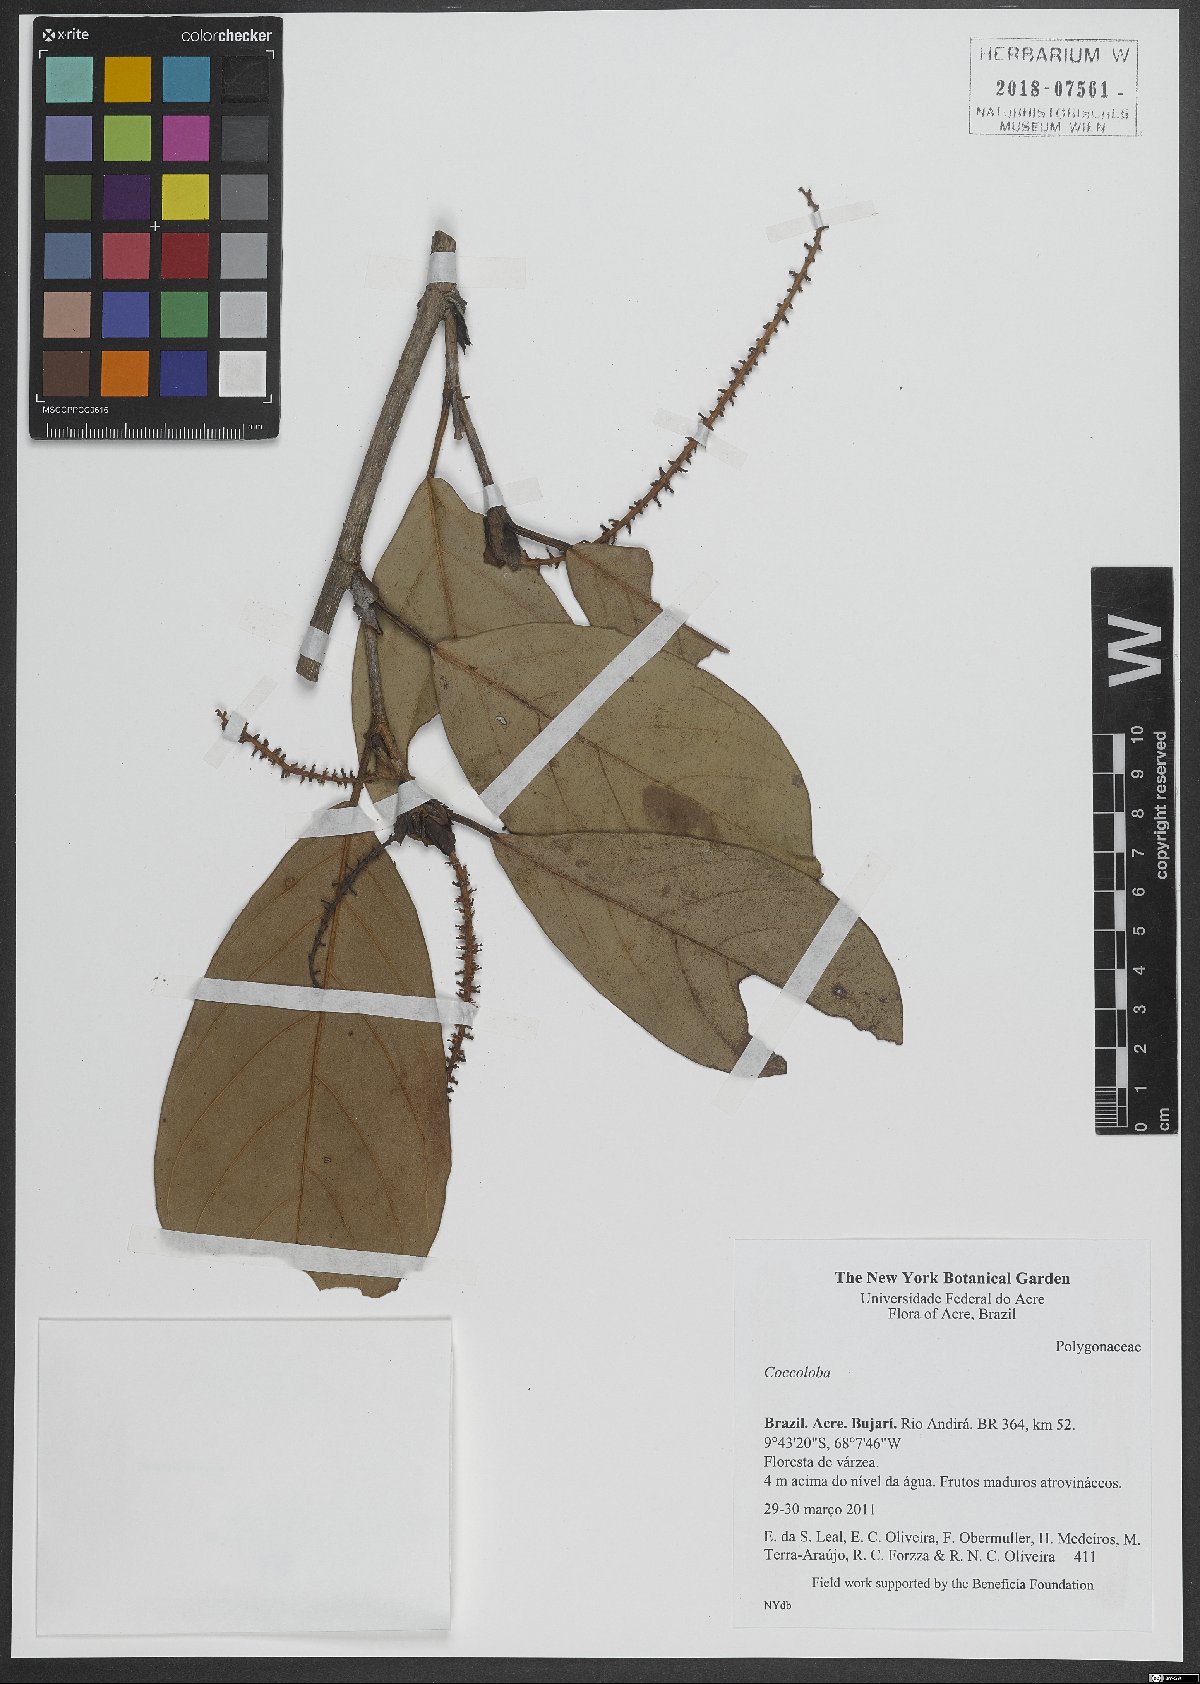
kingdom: Plantae
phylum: Tracheophyta
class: Magnoliopsida
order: Caryophyllales
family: Polygonaceae
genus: Coccoloba
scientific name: Coccoloba
